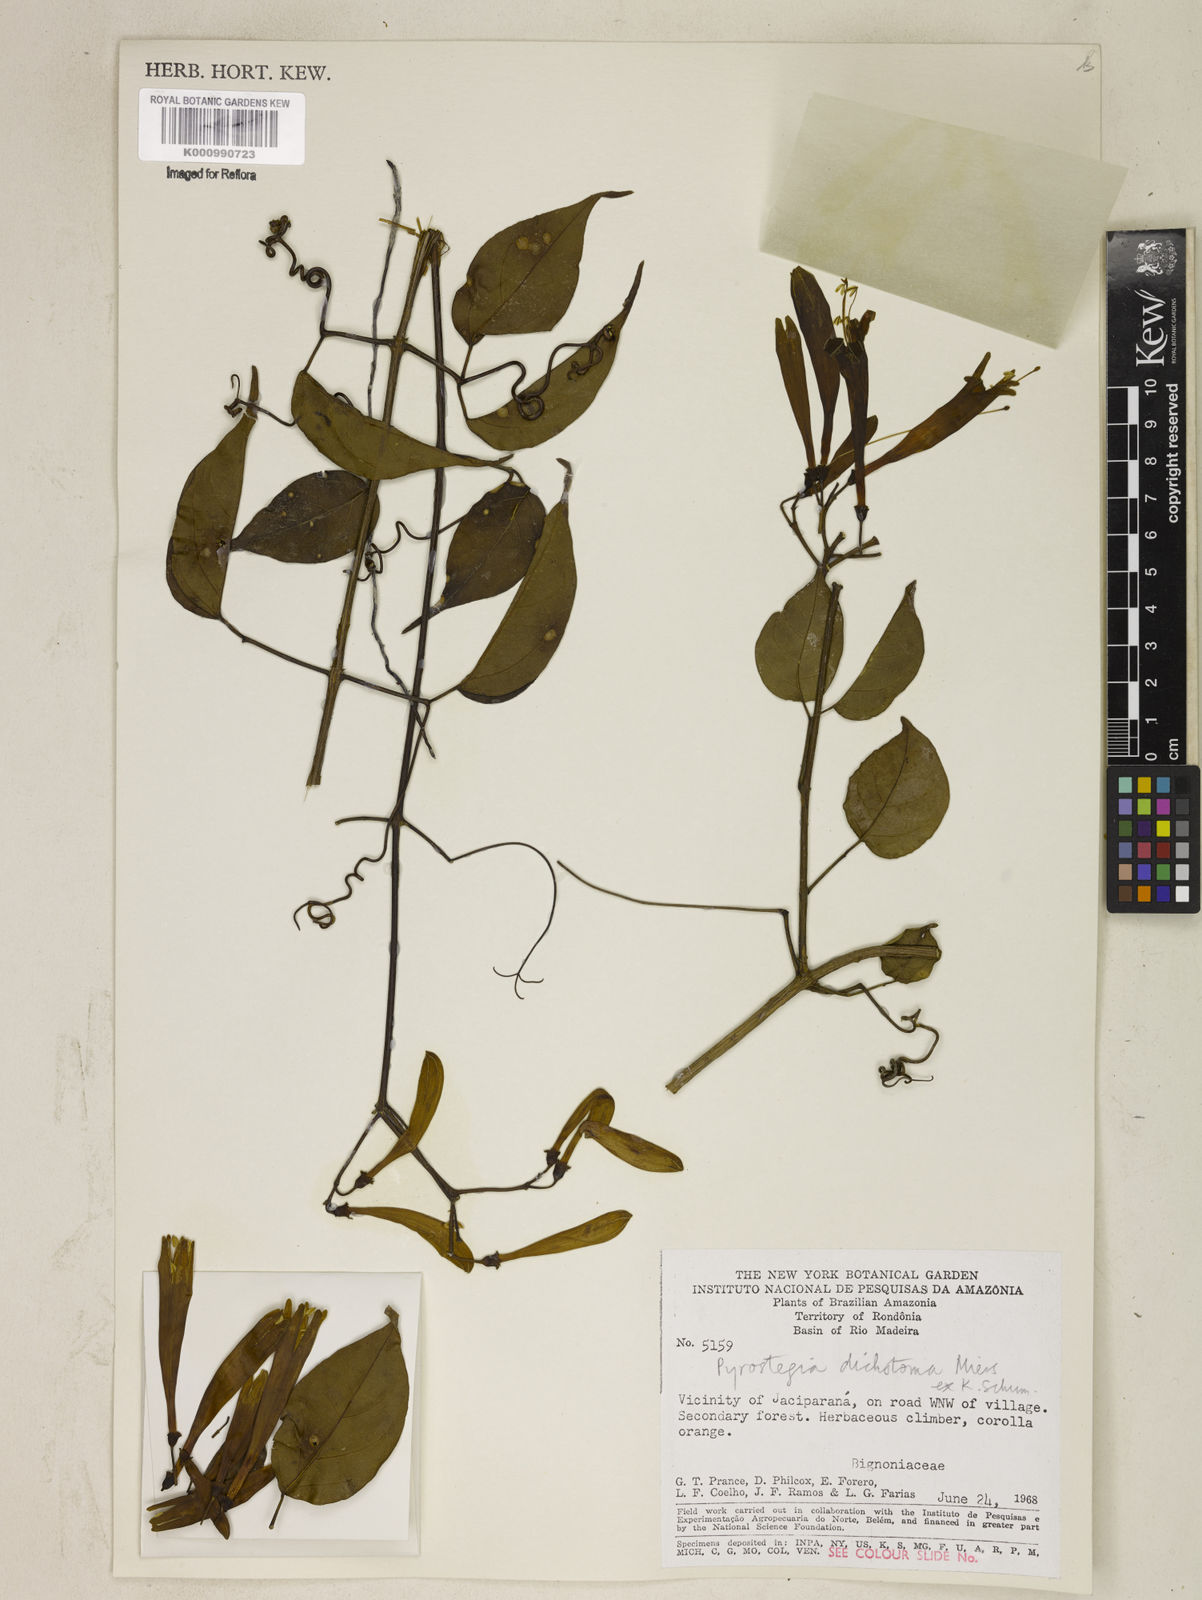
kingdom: Plantae
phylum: Tracheophyta
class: Magnoliopsida
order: Lamiales
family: Bignoniaceae
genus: Pyrostegia
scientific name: Pyrostegia
